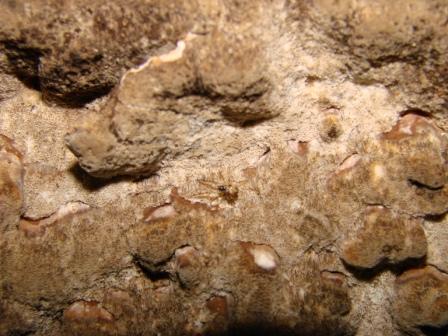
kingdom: Fungi
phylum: Basidiomycota
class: Agaricomycetes
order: Hymenochaetales
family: Hymenochaetaceae
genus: Fuscoporia
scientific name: Fuscoporia ferrea
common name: skorpe-ildporesvamp
